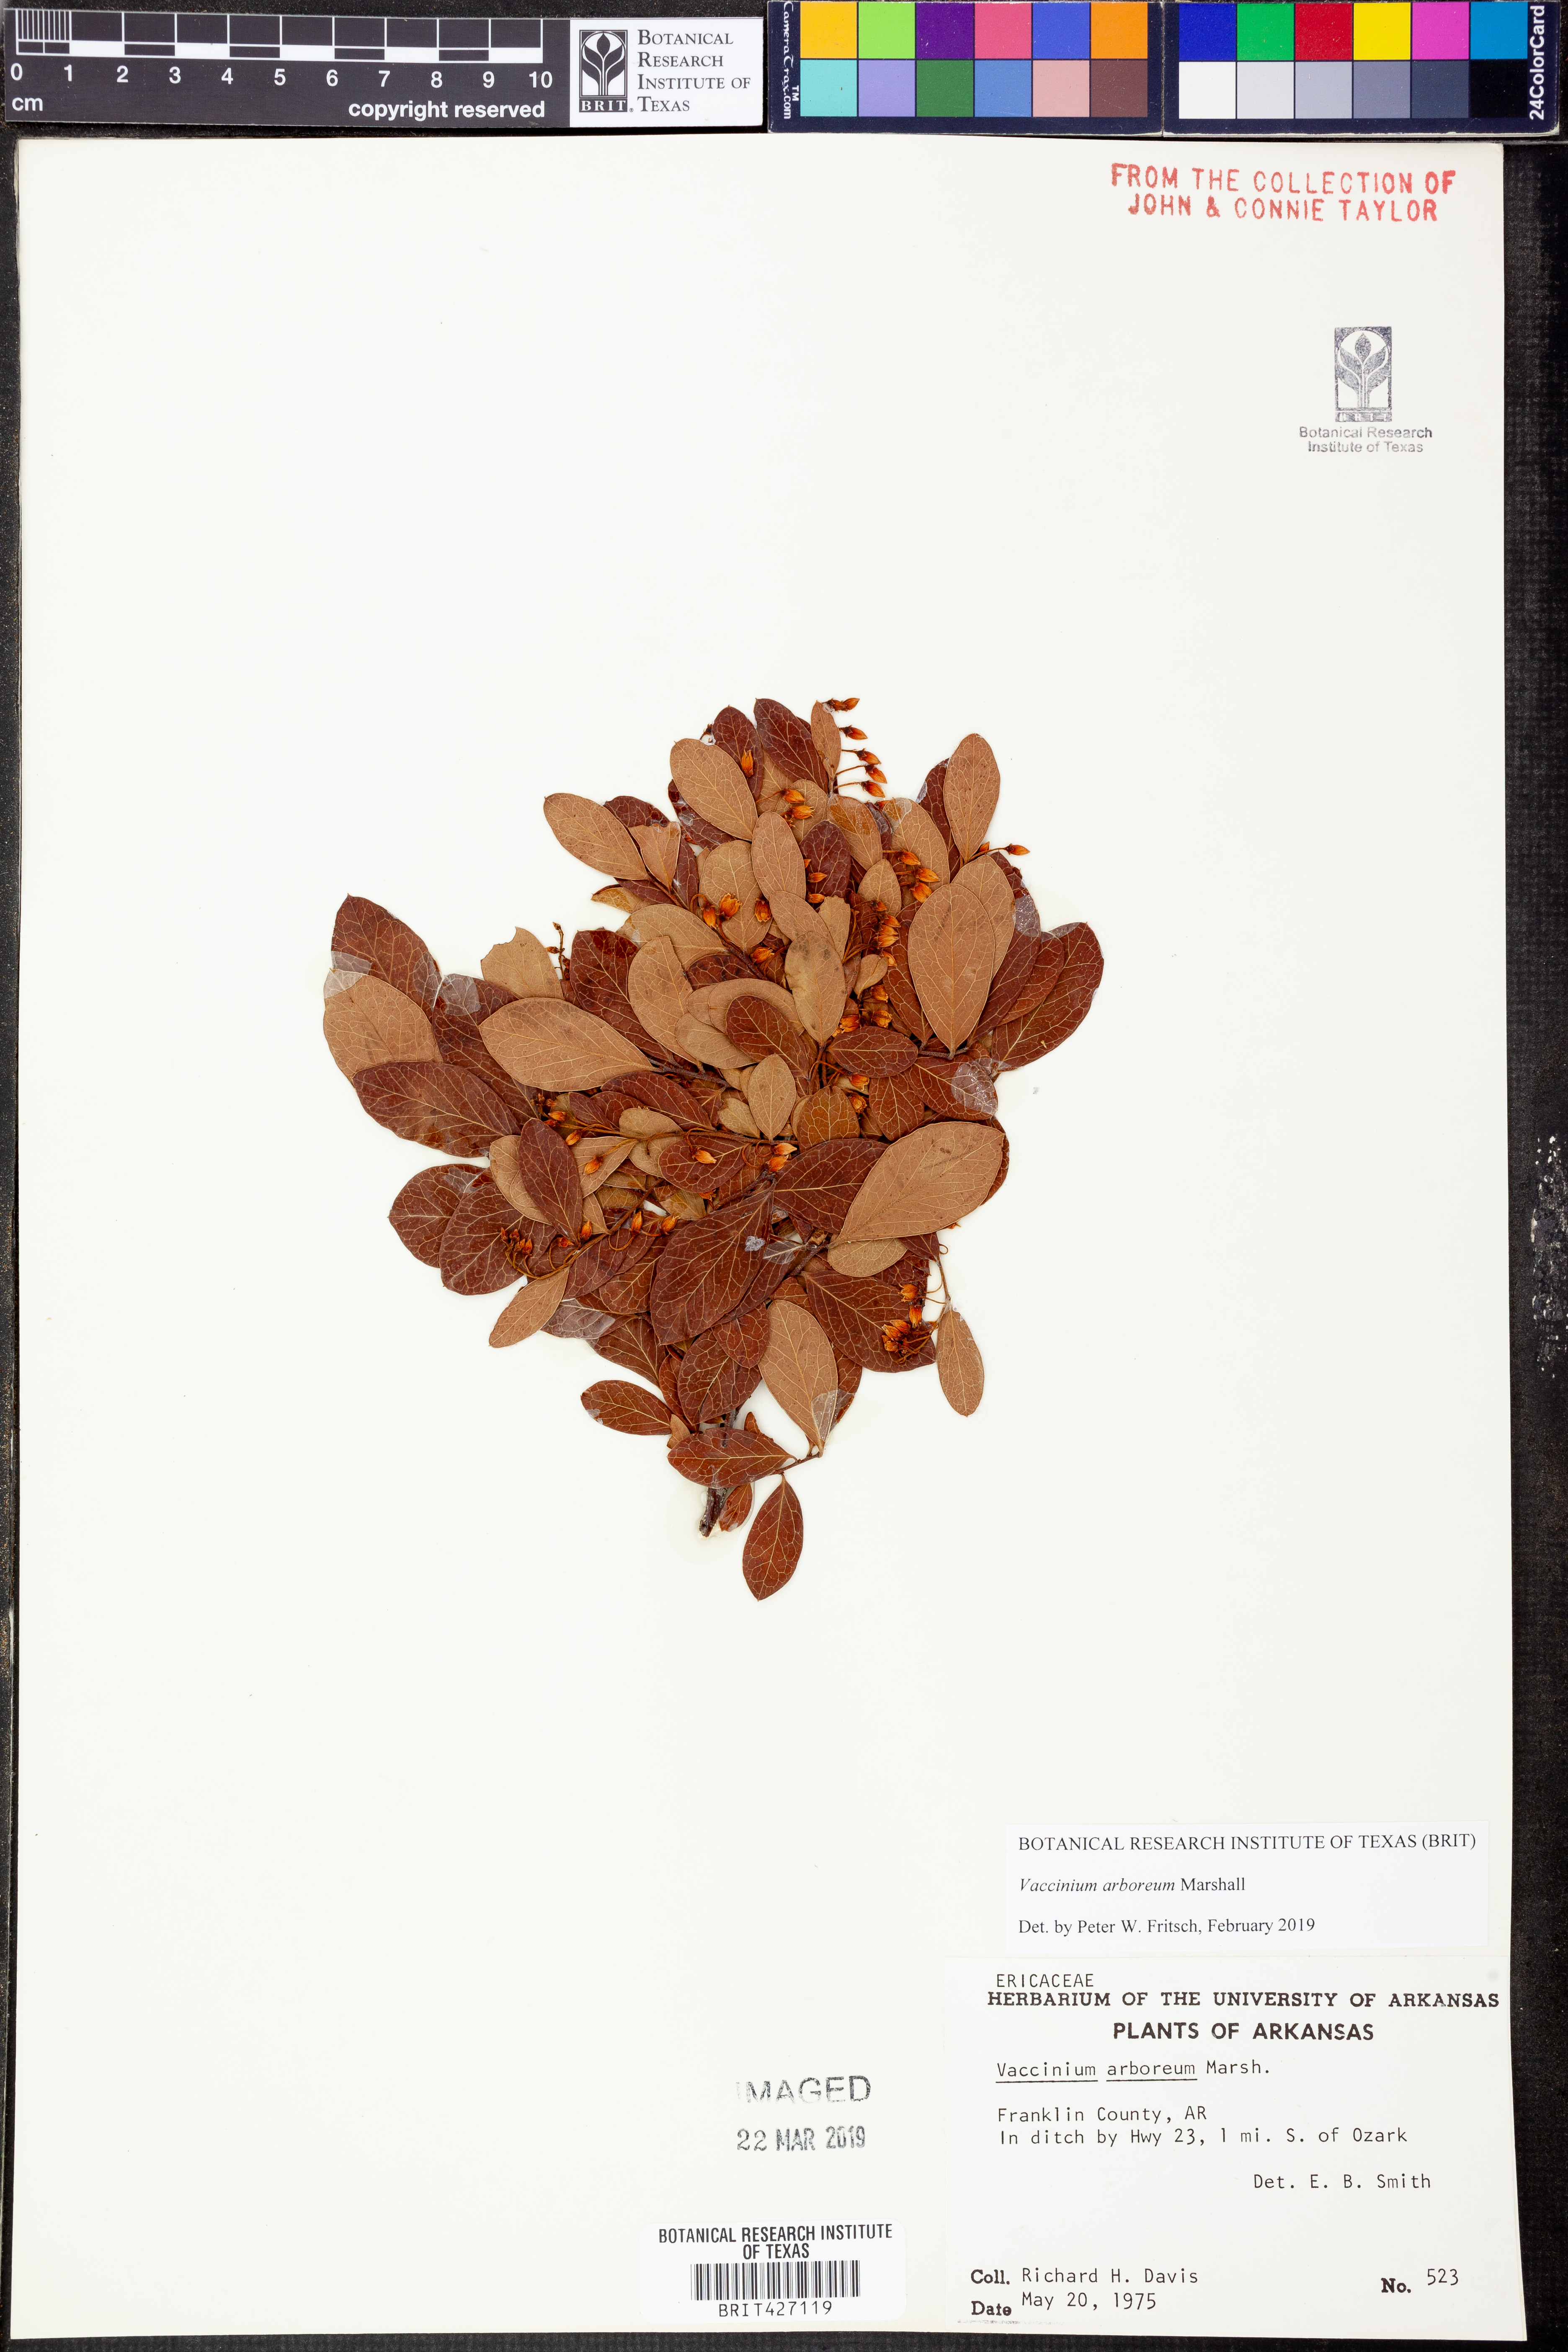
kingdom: Plantae
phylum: Tracheophyta
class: Magnoliopsida
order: Ericales
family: Ericaceae
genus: Vaccinium
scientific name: Vaccinium arboreum
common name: Farkleberry
